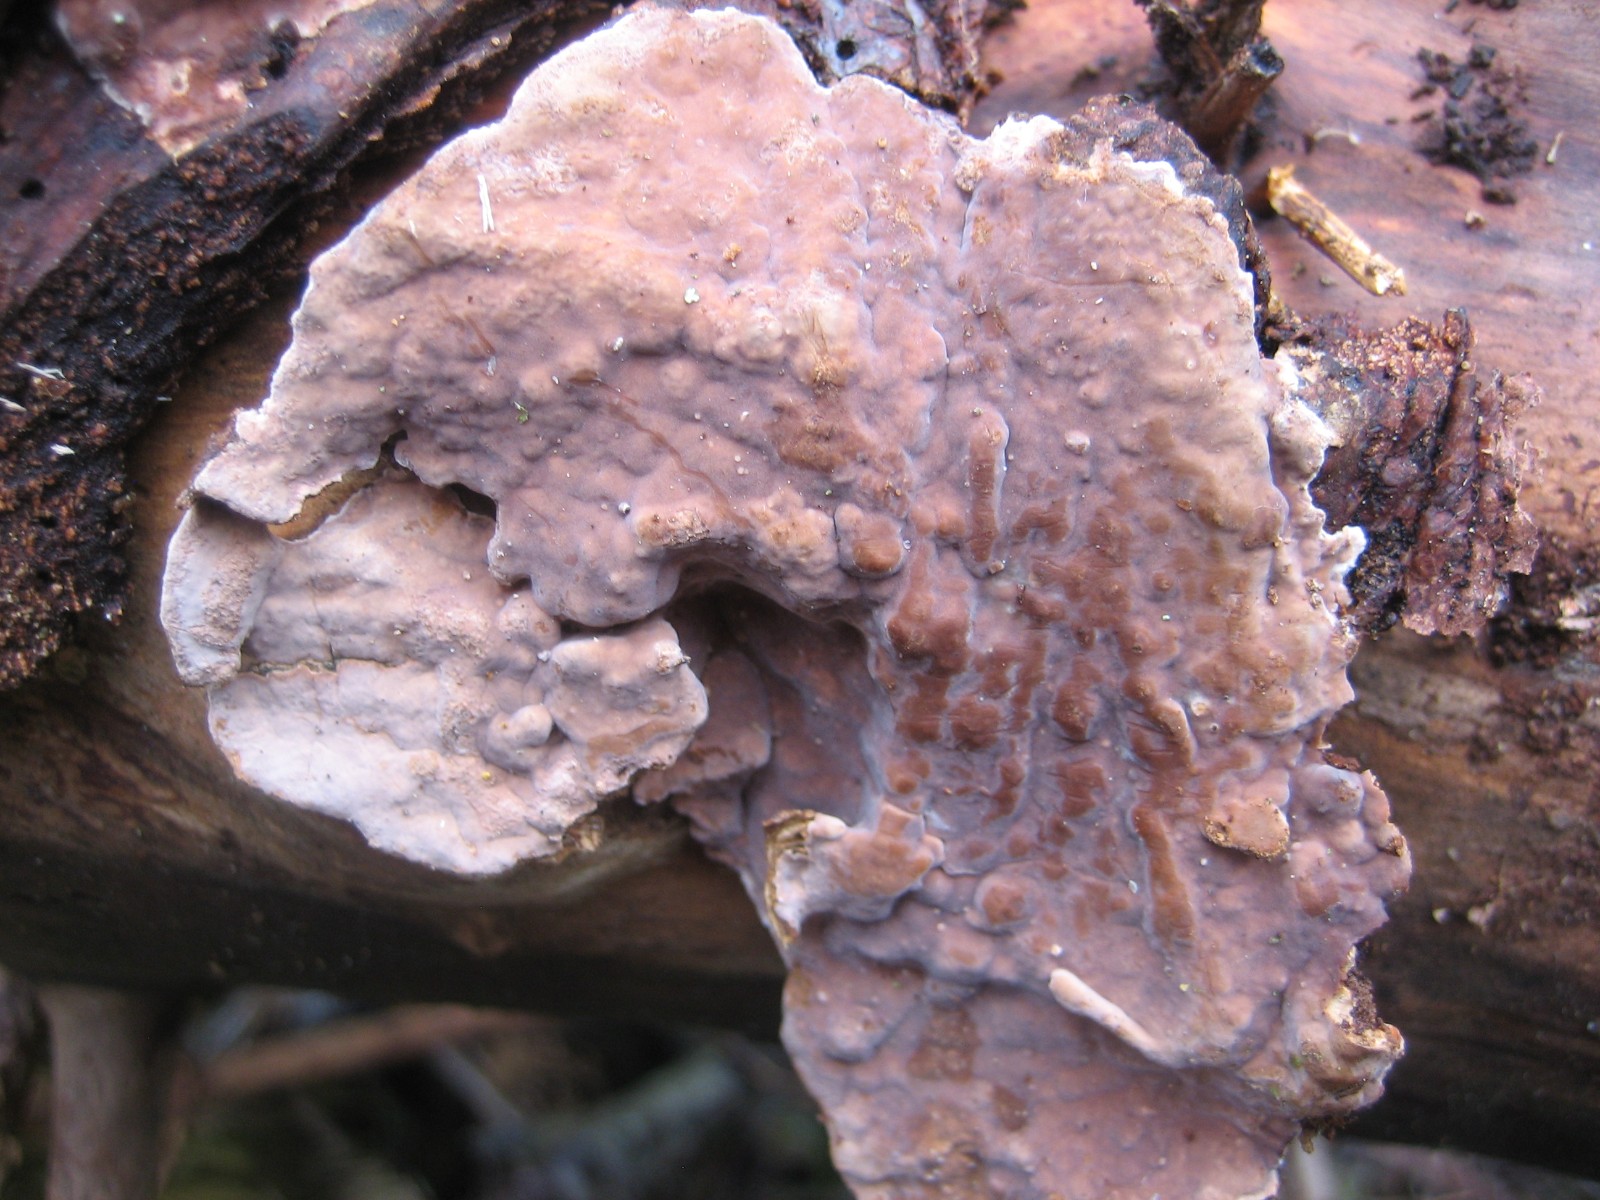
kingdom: Fungi
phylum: Basidiomycota
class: Agaricomycetes
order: Corticiales
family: Corticiaceae
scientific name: Corticiaceae
